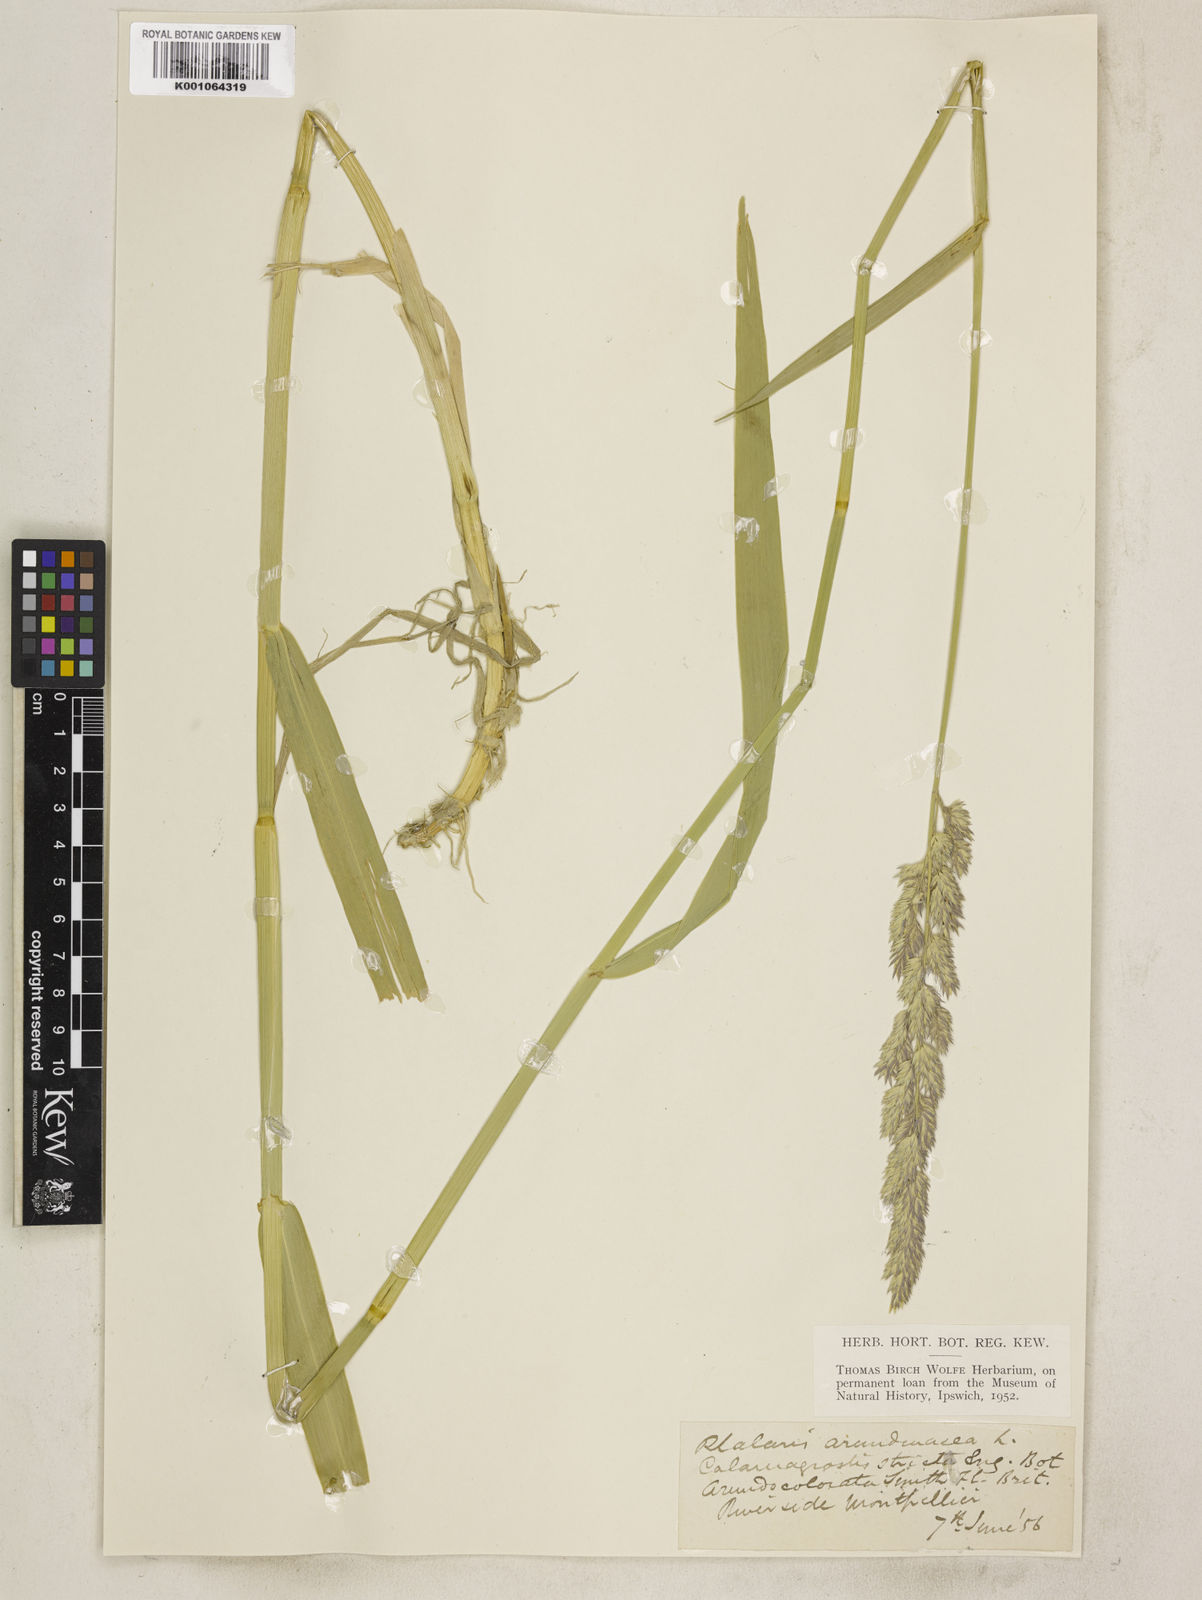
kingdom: Plantae
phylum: Tracheophyta
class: Liliopsida
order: Poales
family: Poaceae
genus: Phalaris
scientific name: Phalaris arundinacea
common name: Reed canary-grass
